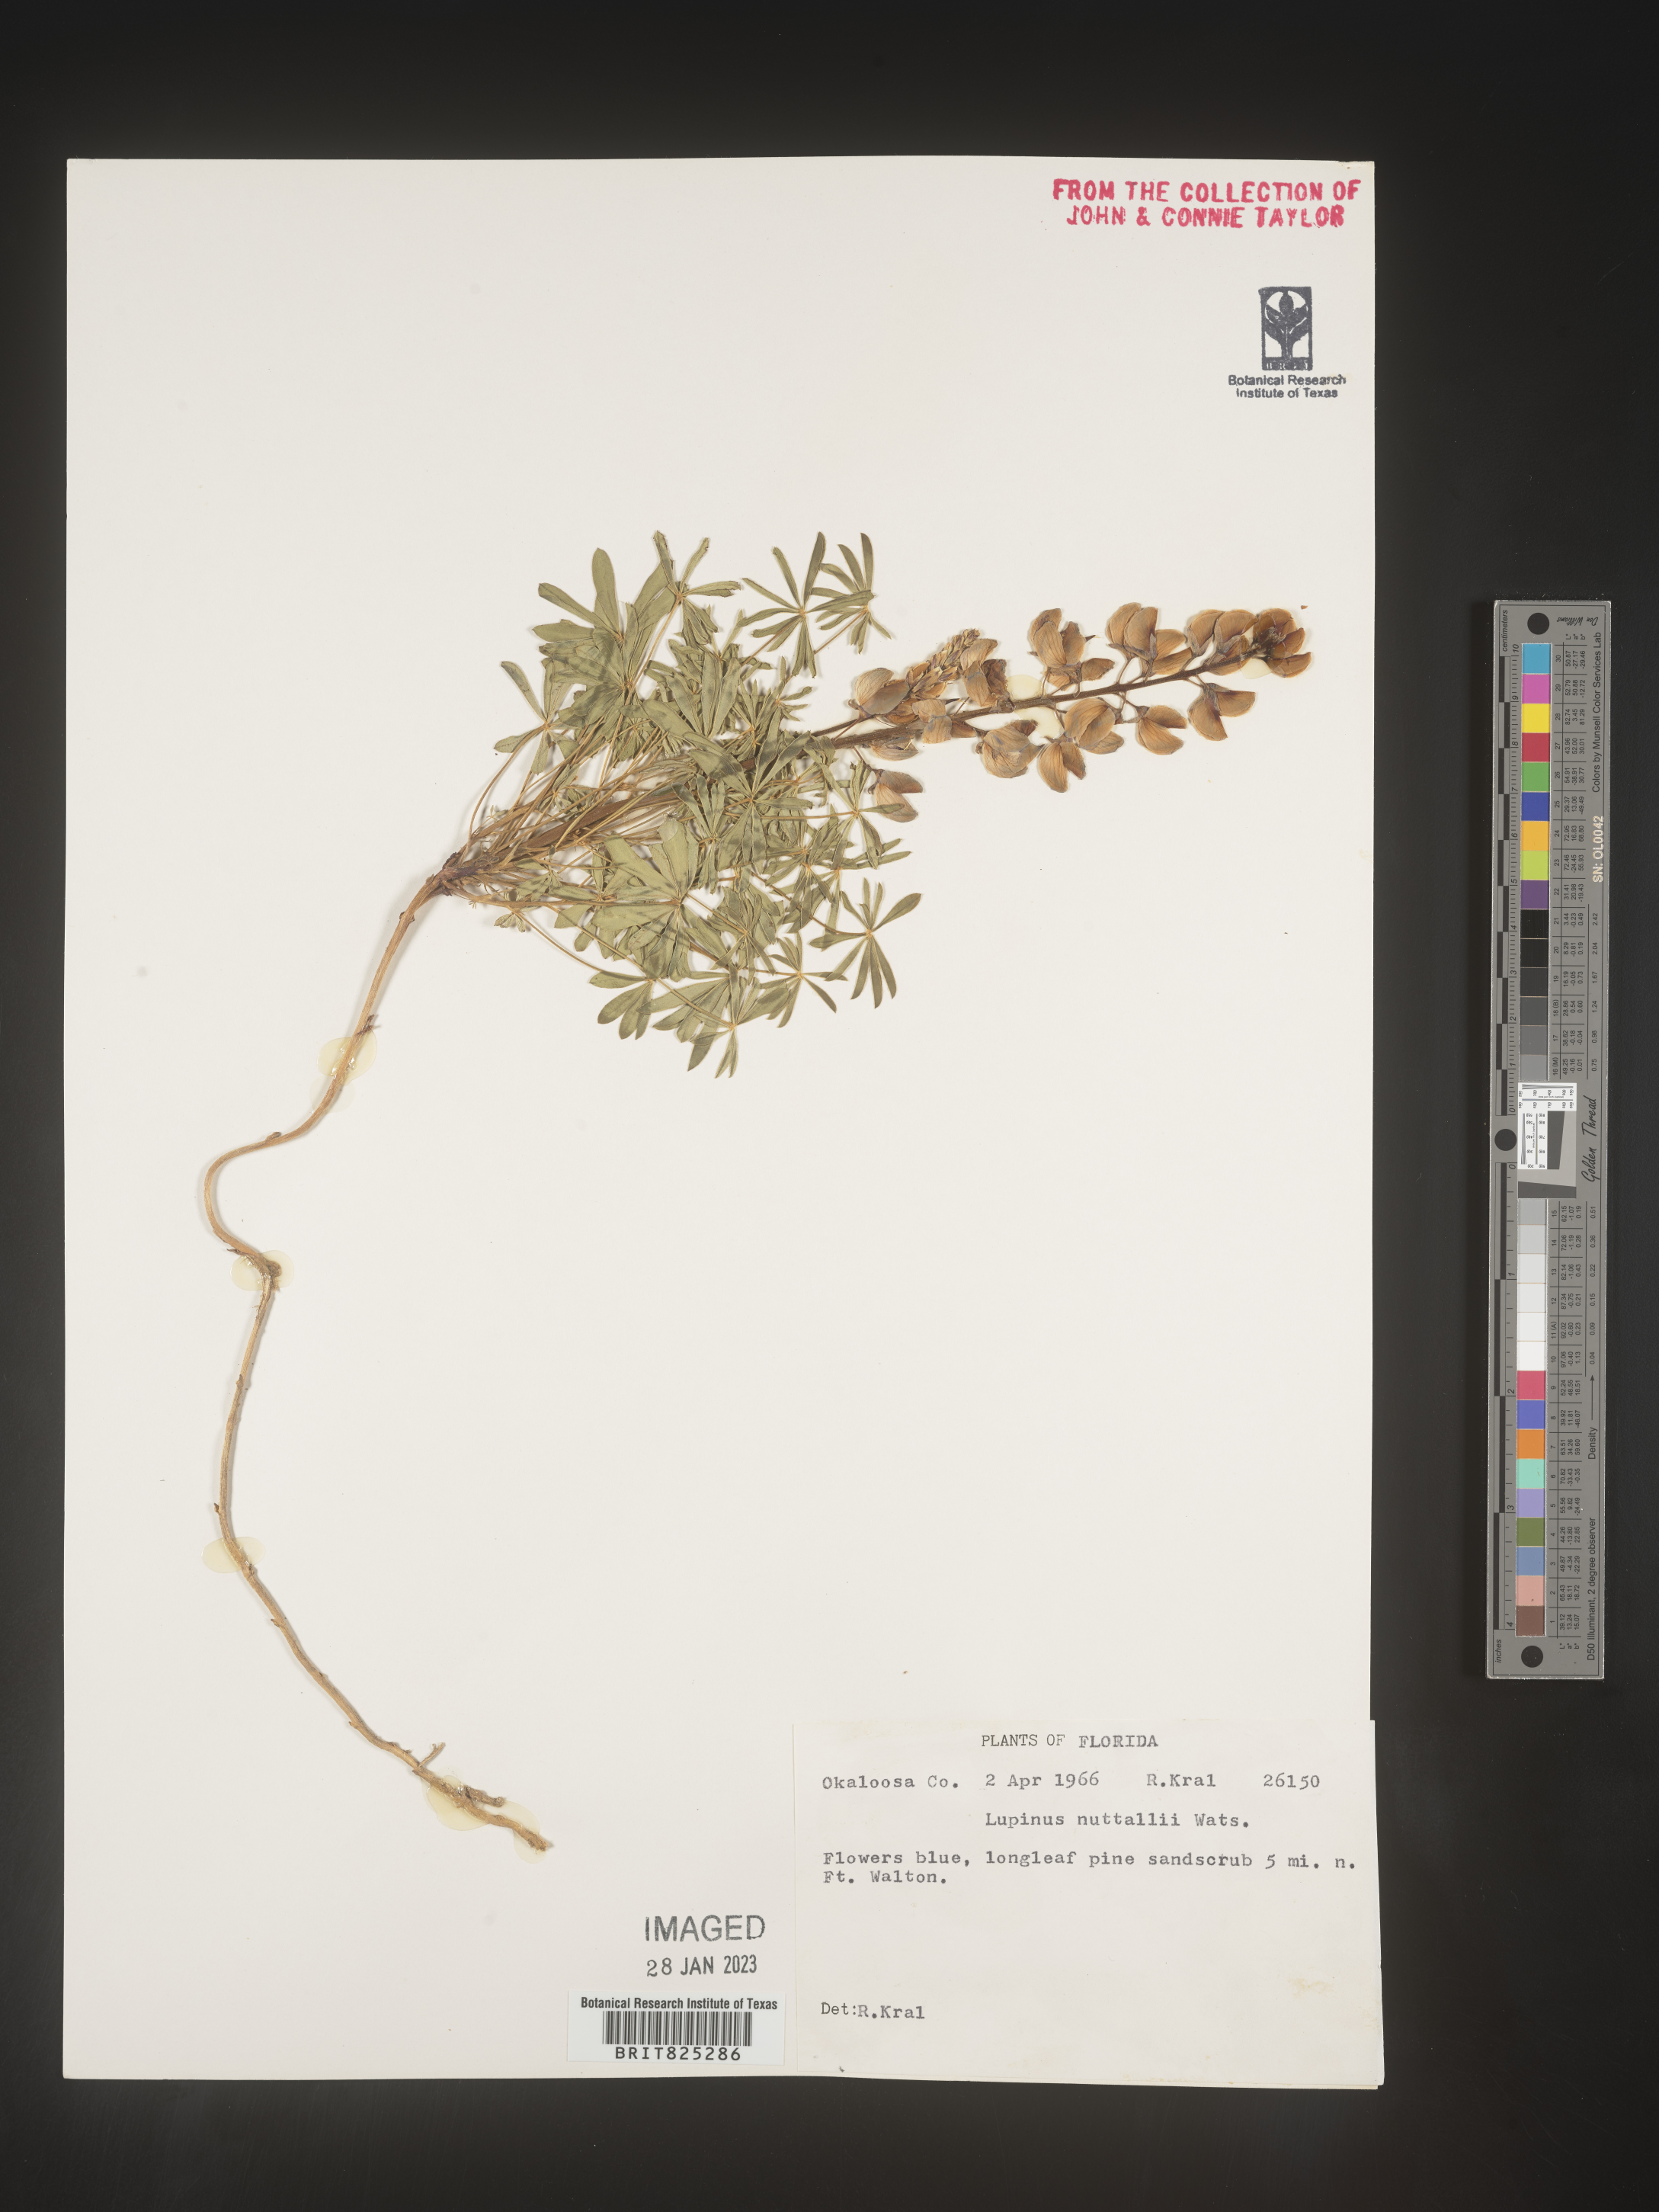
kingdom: Plantae
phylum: Tracheophyta
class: Magnoliopsida
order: Fabales
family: Fabaceae
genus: Lupinus
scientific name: Lupinus
